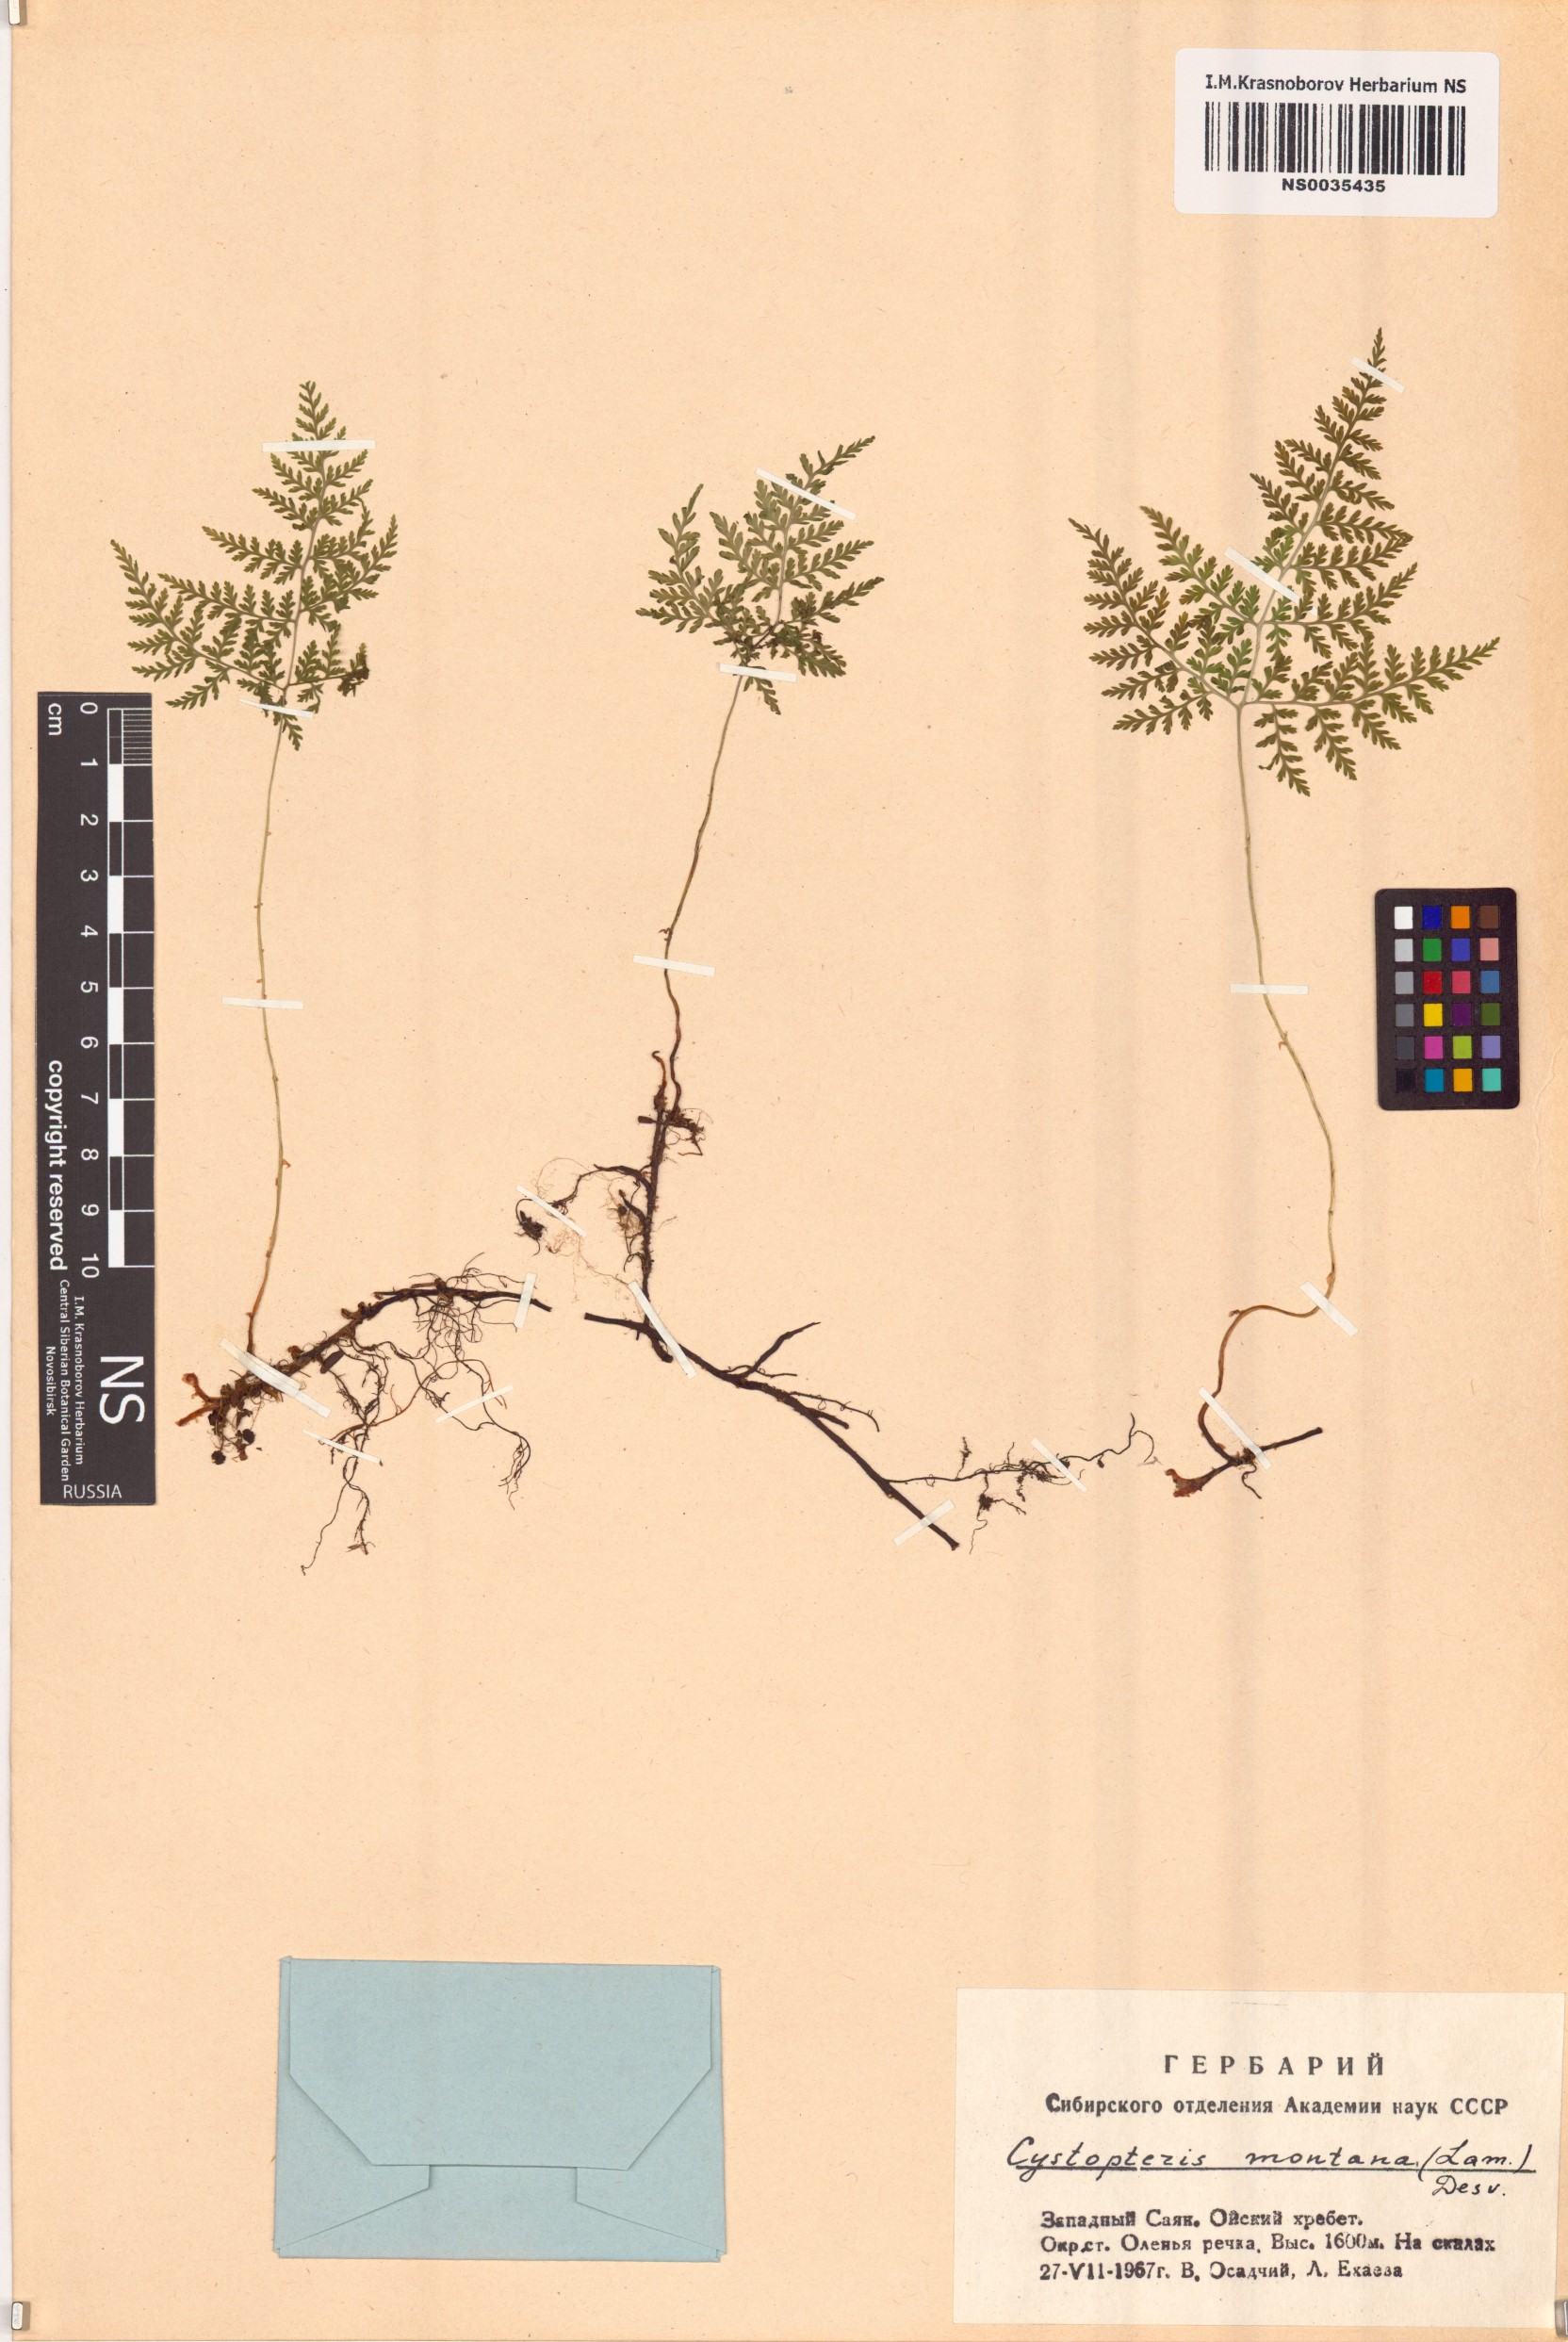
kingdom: Plantae
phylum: Tracheophyta
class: Polypodiopsida
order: Polypodiales
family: Cystopteridaceae
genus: Cystopteris
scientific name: Cystopteris montana
